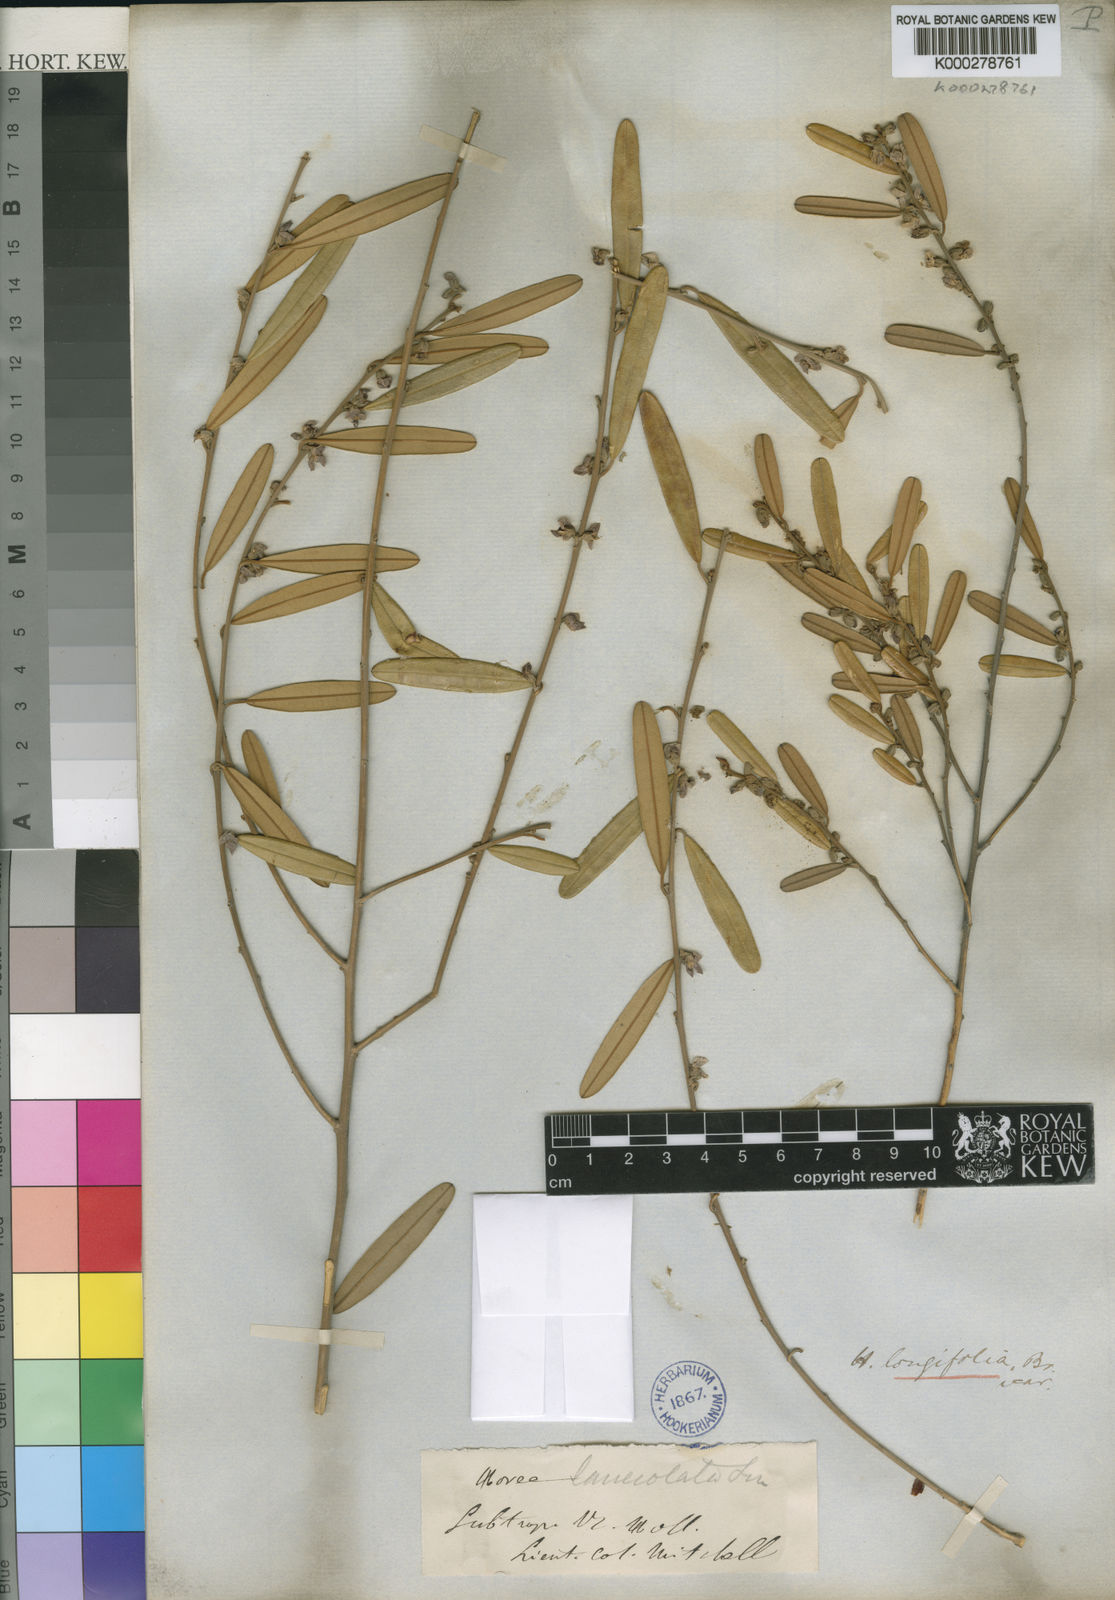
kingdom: Plantae
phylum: Tracheophyta
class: Magnoliopsida
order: Fabales
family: Fabaceae
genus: Hovea
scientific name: Hovea lanceolata
